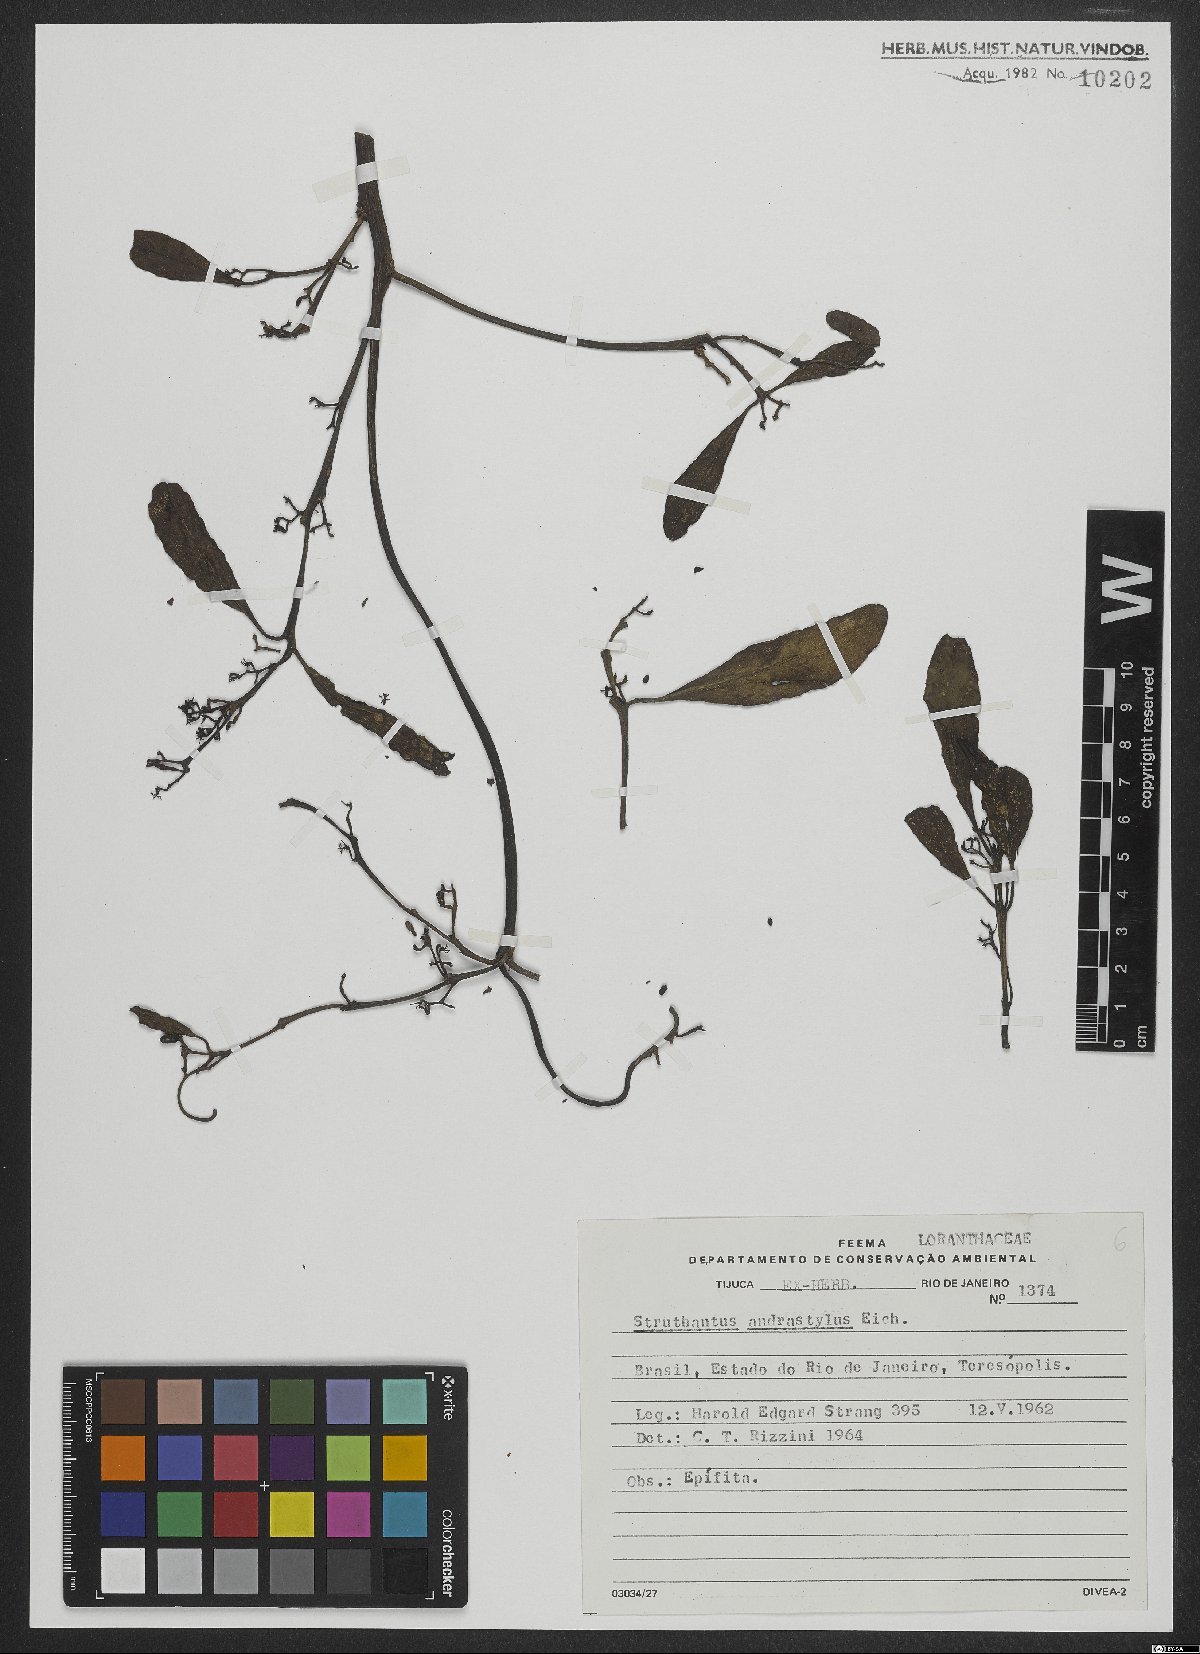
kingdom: Plantae
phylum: Tracheophyta
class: Magnoliopsida
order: Santalales
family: Loranthaceae
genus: Struthanthus
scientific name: Struthanthus andrastylus
